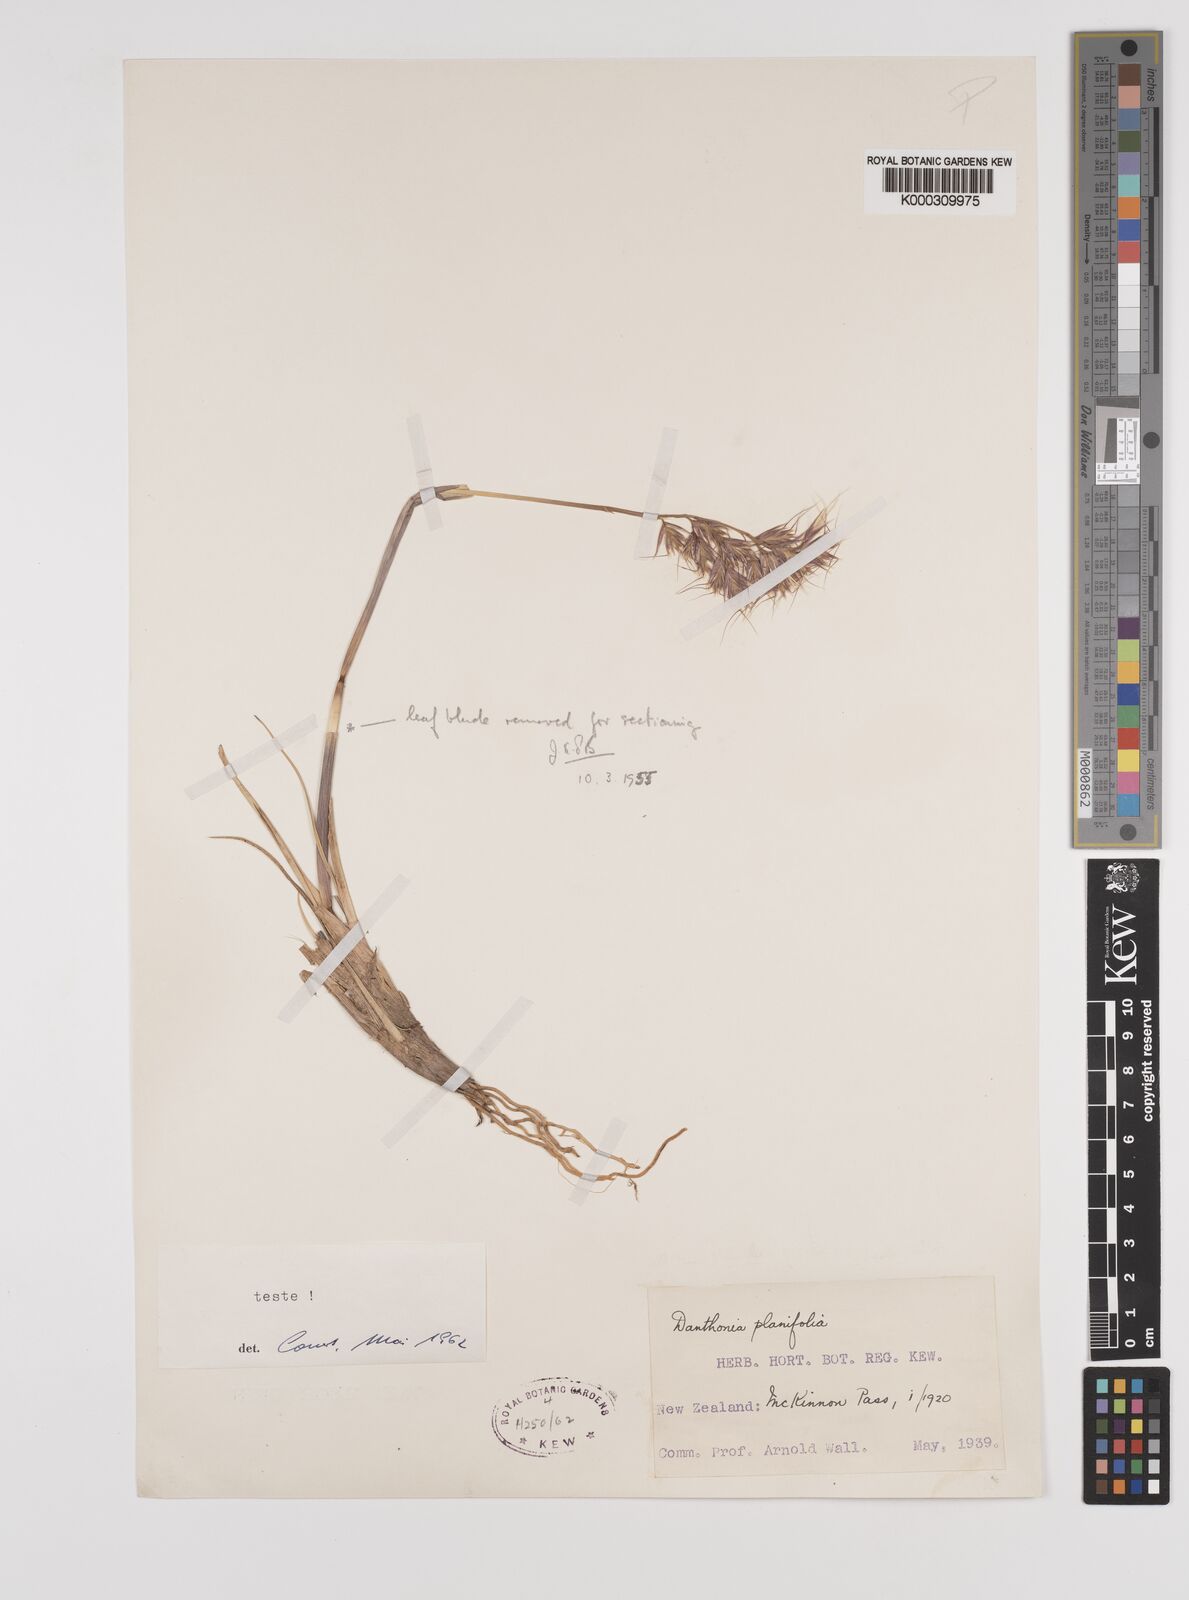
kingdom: Plantae
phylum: Tracheophyta
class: Liliopsida
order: Poales
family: Poaceae
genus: Chionochloa
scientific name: Chionochloa ovata
